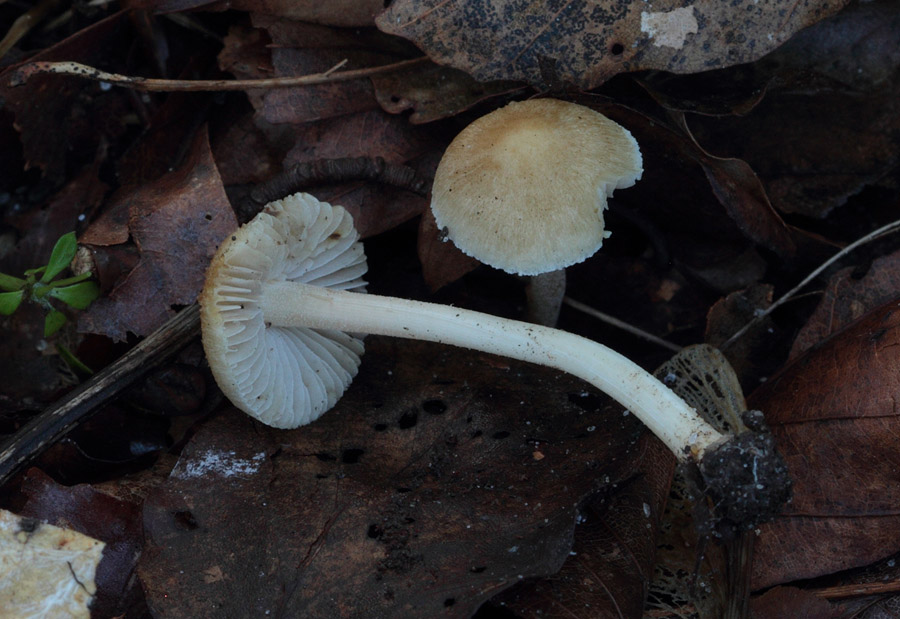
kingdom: Fungi
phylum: Basidiomycota
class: Agaricomycetes
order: Agaricales
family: Inocybaceae
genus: Inocybe
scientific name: Inocybe hirtella
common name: mandel-trævlhat
